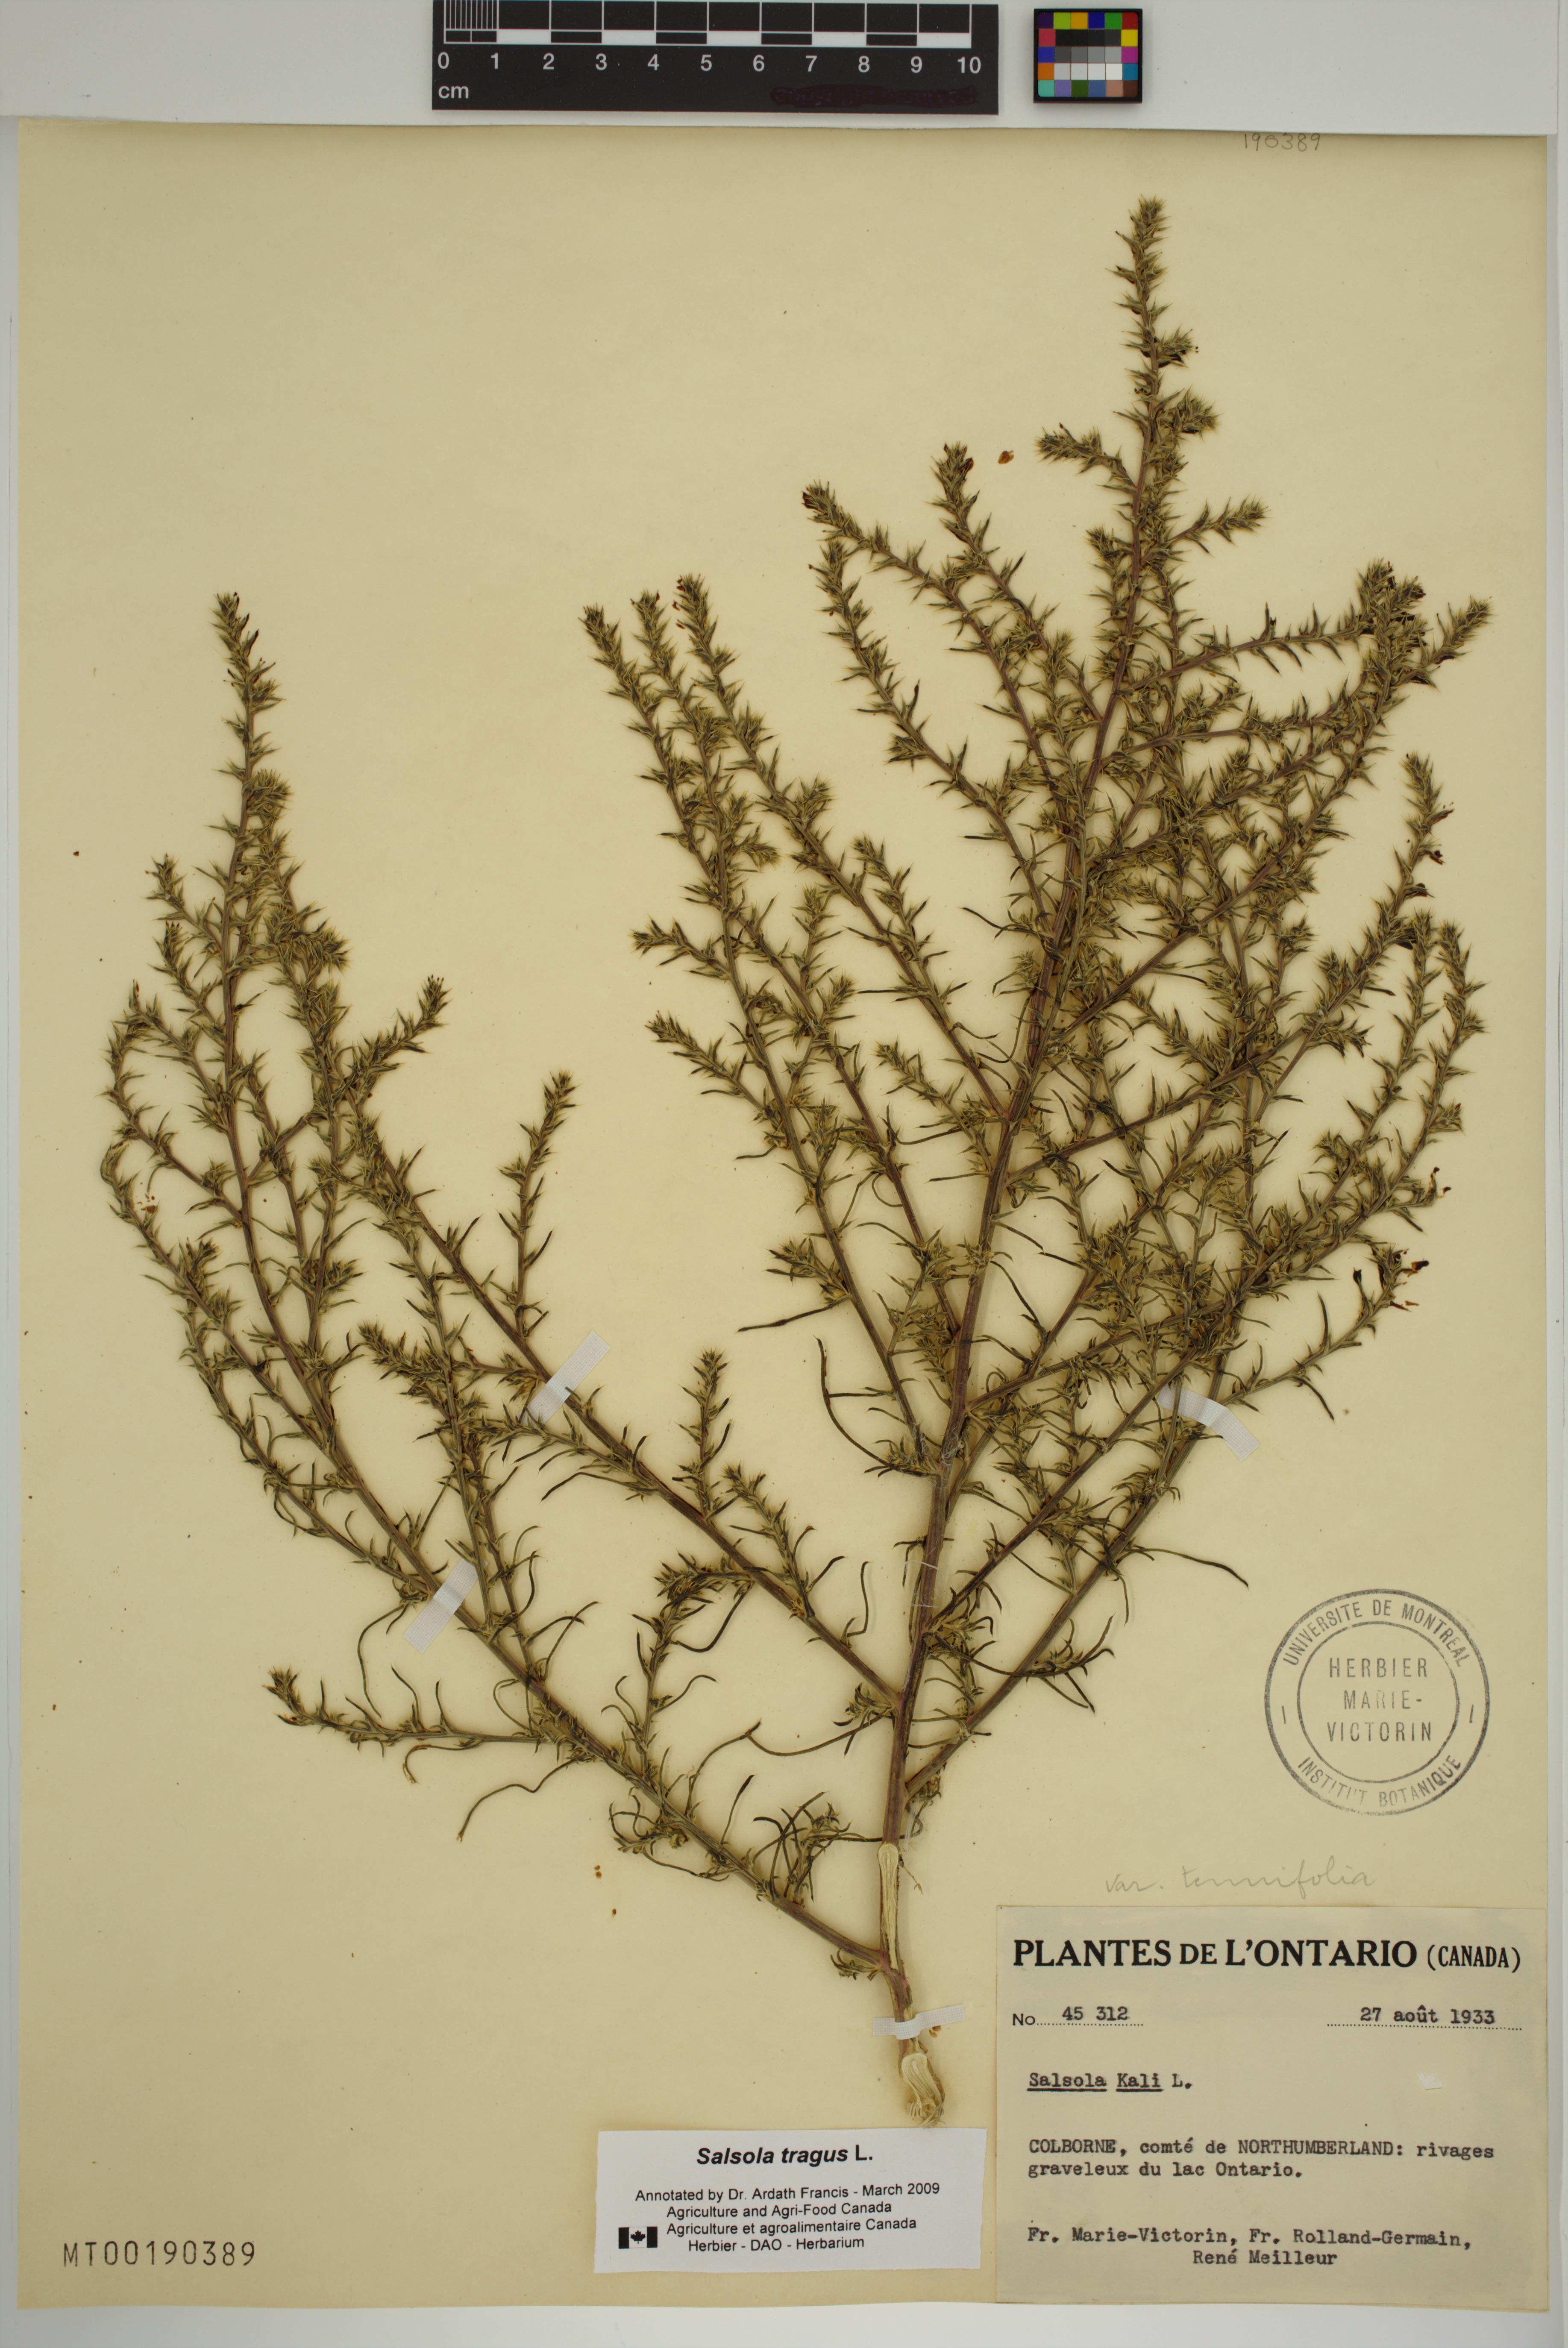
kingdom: Plantae
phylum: Tracheophyta
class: Magnoliopsida
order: Caryophyllales
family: Amaranthaceae
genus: Salsola
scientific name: Salsola tragus
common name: Prickly russian thistle
